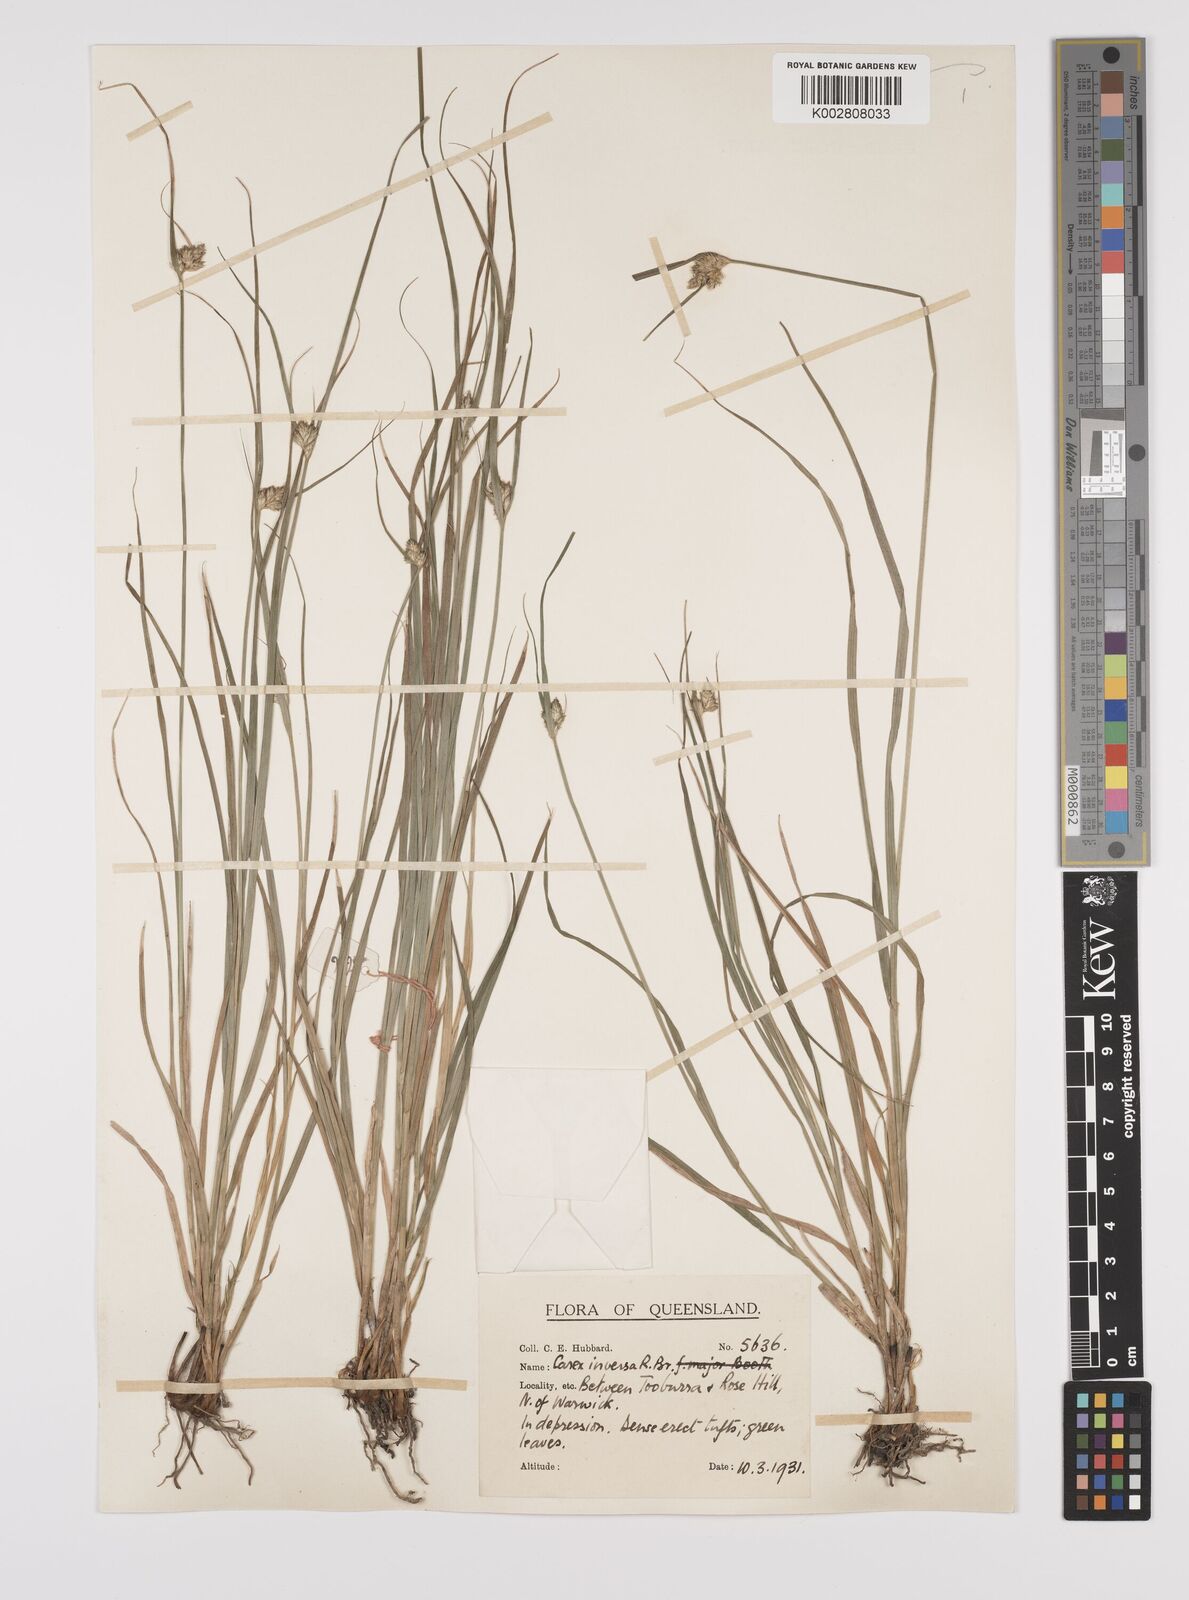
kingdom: Plantae
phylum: Tracheophyta
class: Liliopsida
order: Poales
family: Cyperaceae
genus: Carex
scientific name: Carex inversa
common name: Knob sedge
